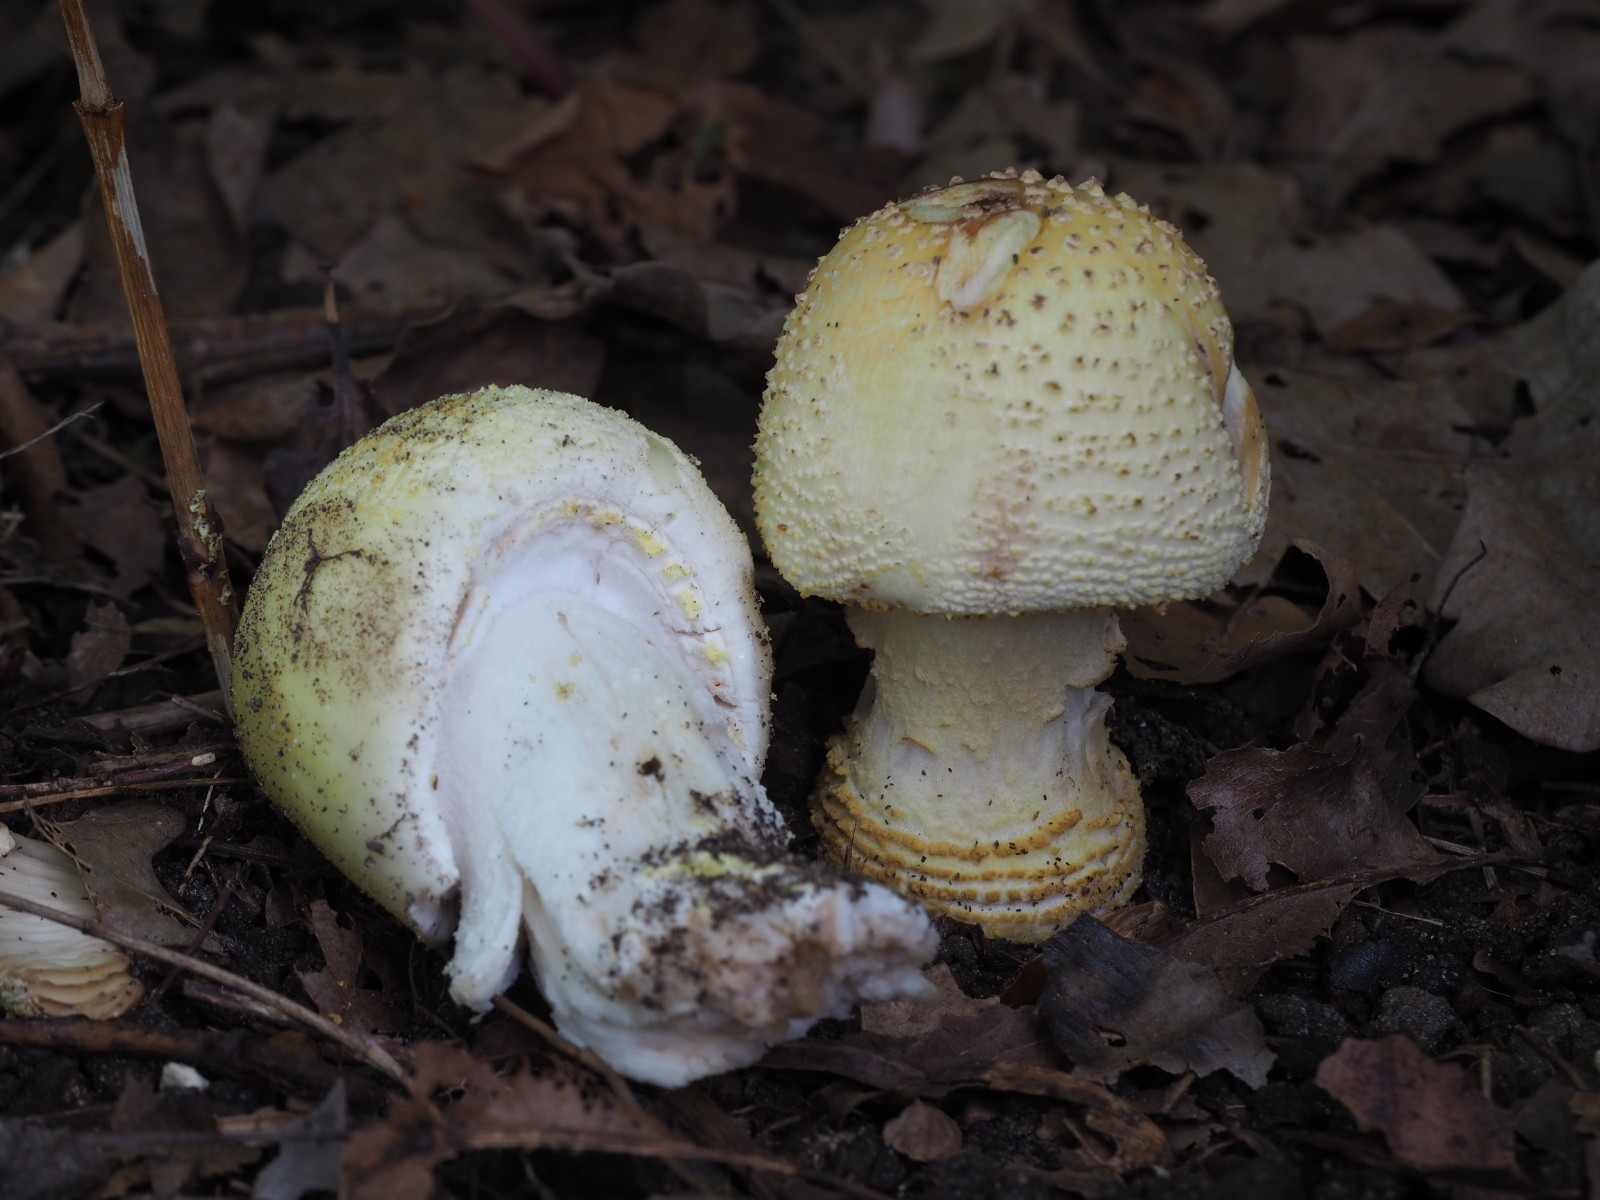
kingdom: Fungi
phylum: Basidiomycota
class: Agaricomycetes
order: Agaricales
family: Amanitaceae
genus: Amanita
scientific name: Amanita franchetii
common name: gulrandet fluesvamp
